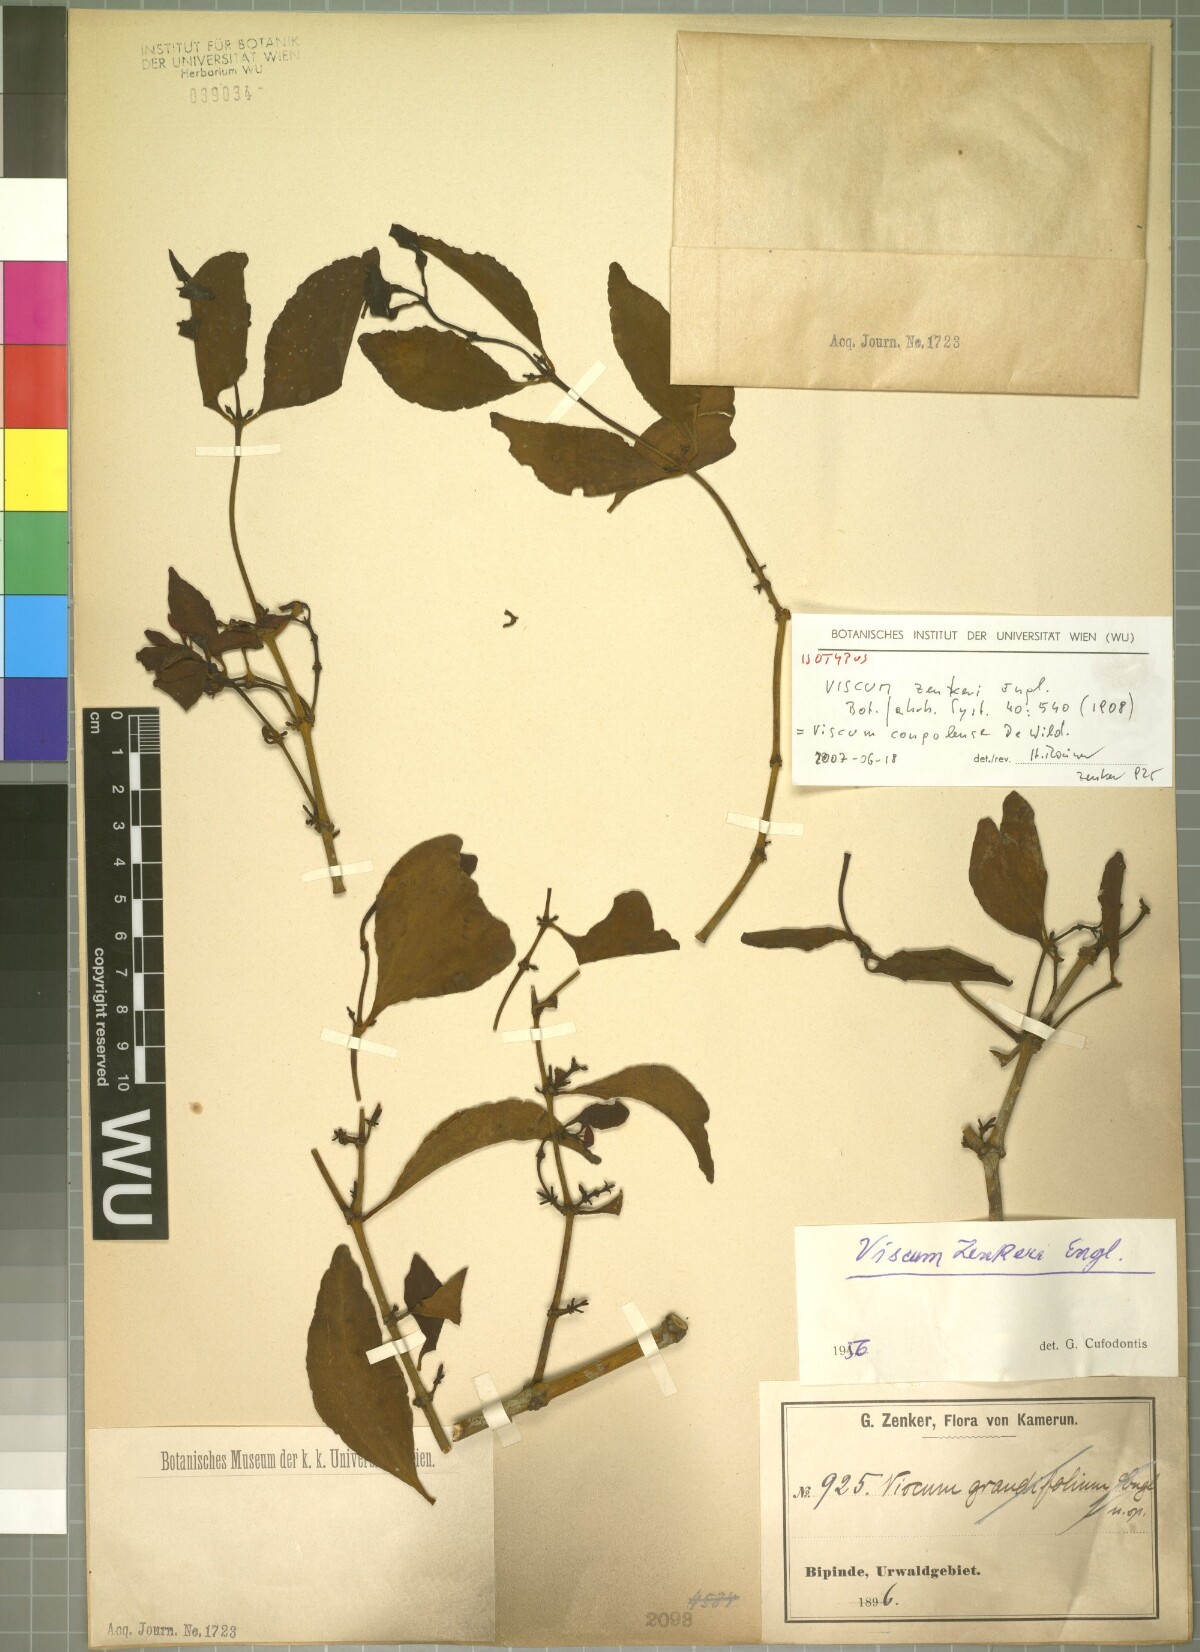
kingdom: Plantae
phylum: Tracheophyta
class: Magnoliopsida
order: Santalales
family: Viscaceae
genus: Viscum
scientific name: Viscum congolense
